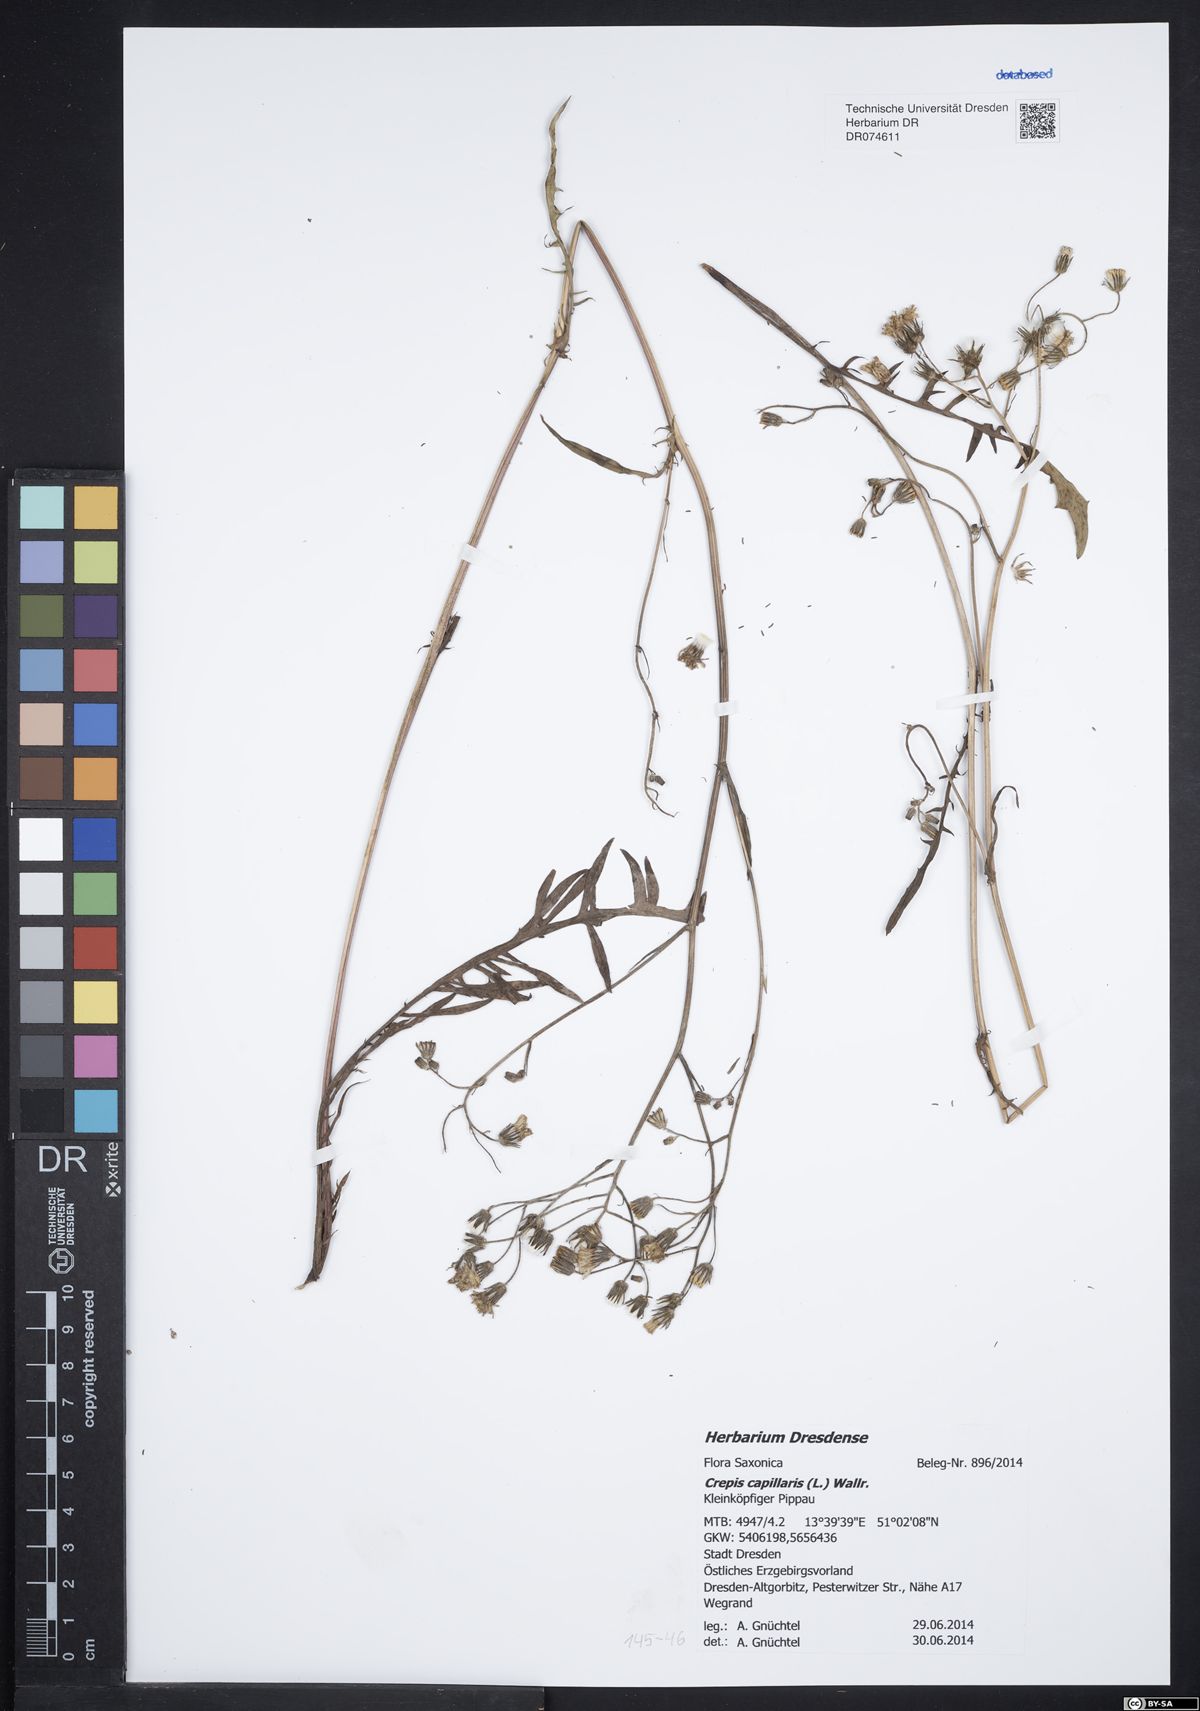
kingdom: Plantae
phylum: Tracheophyta
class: Magnoliopsida
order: Asterales
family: Asteraceae
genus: Crepis
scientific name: Crepis capillaris
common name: Smooth hawksbeard
